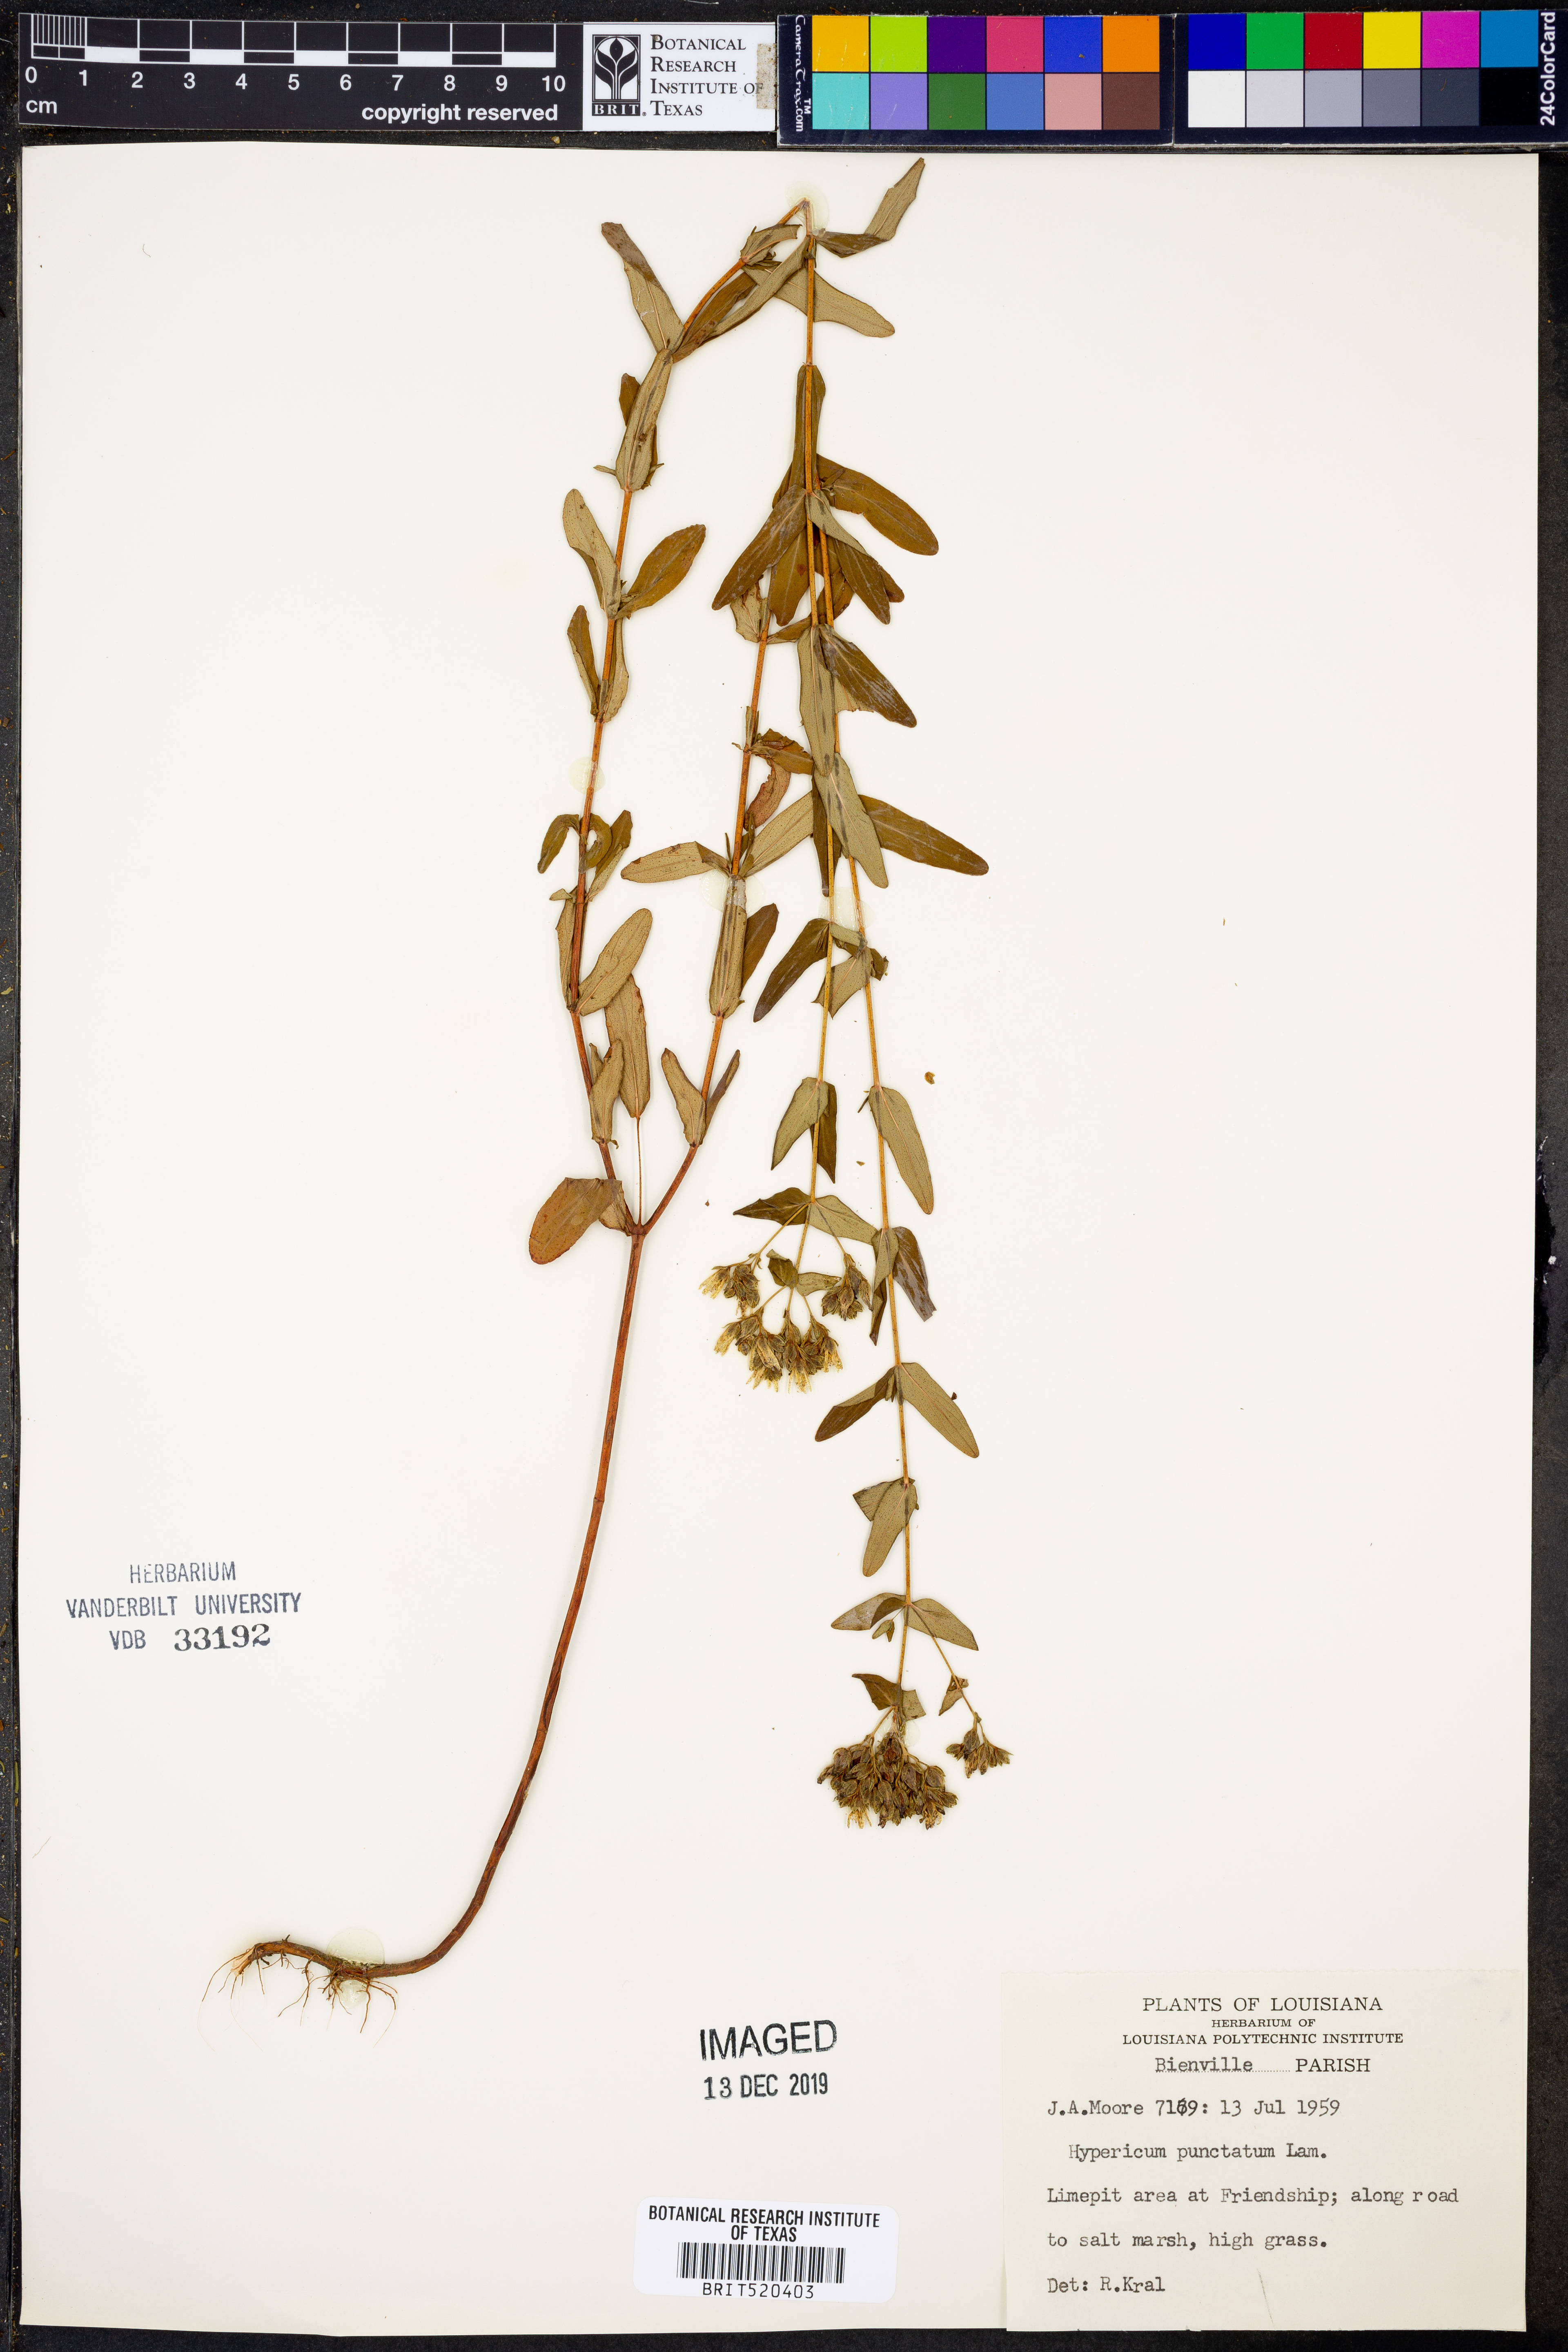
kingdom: Plantae
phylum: Tracheophyta
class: Magnoliopsida
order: Malpighiales
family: Hypericaceae
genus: Hypericum
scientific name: Hypericum punctatum
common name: Spotted st. john's-wort
